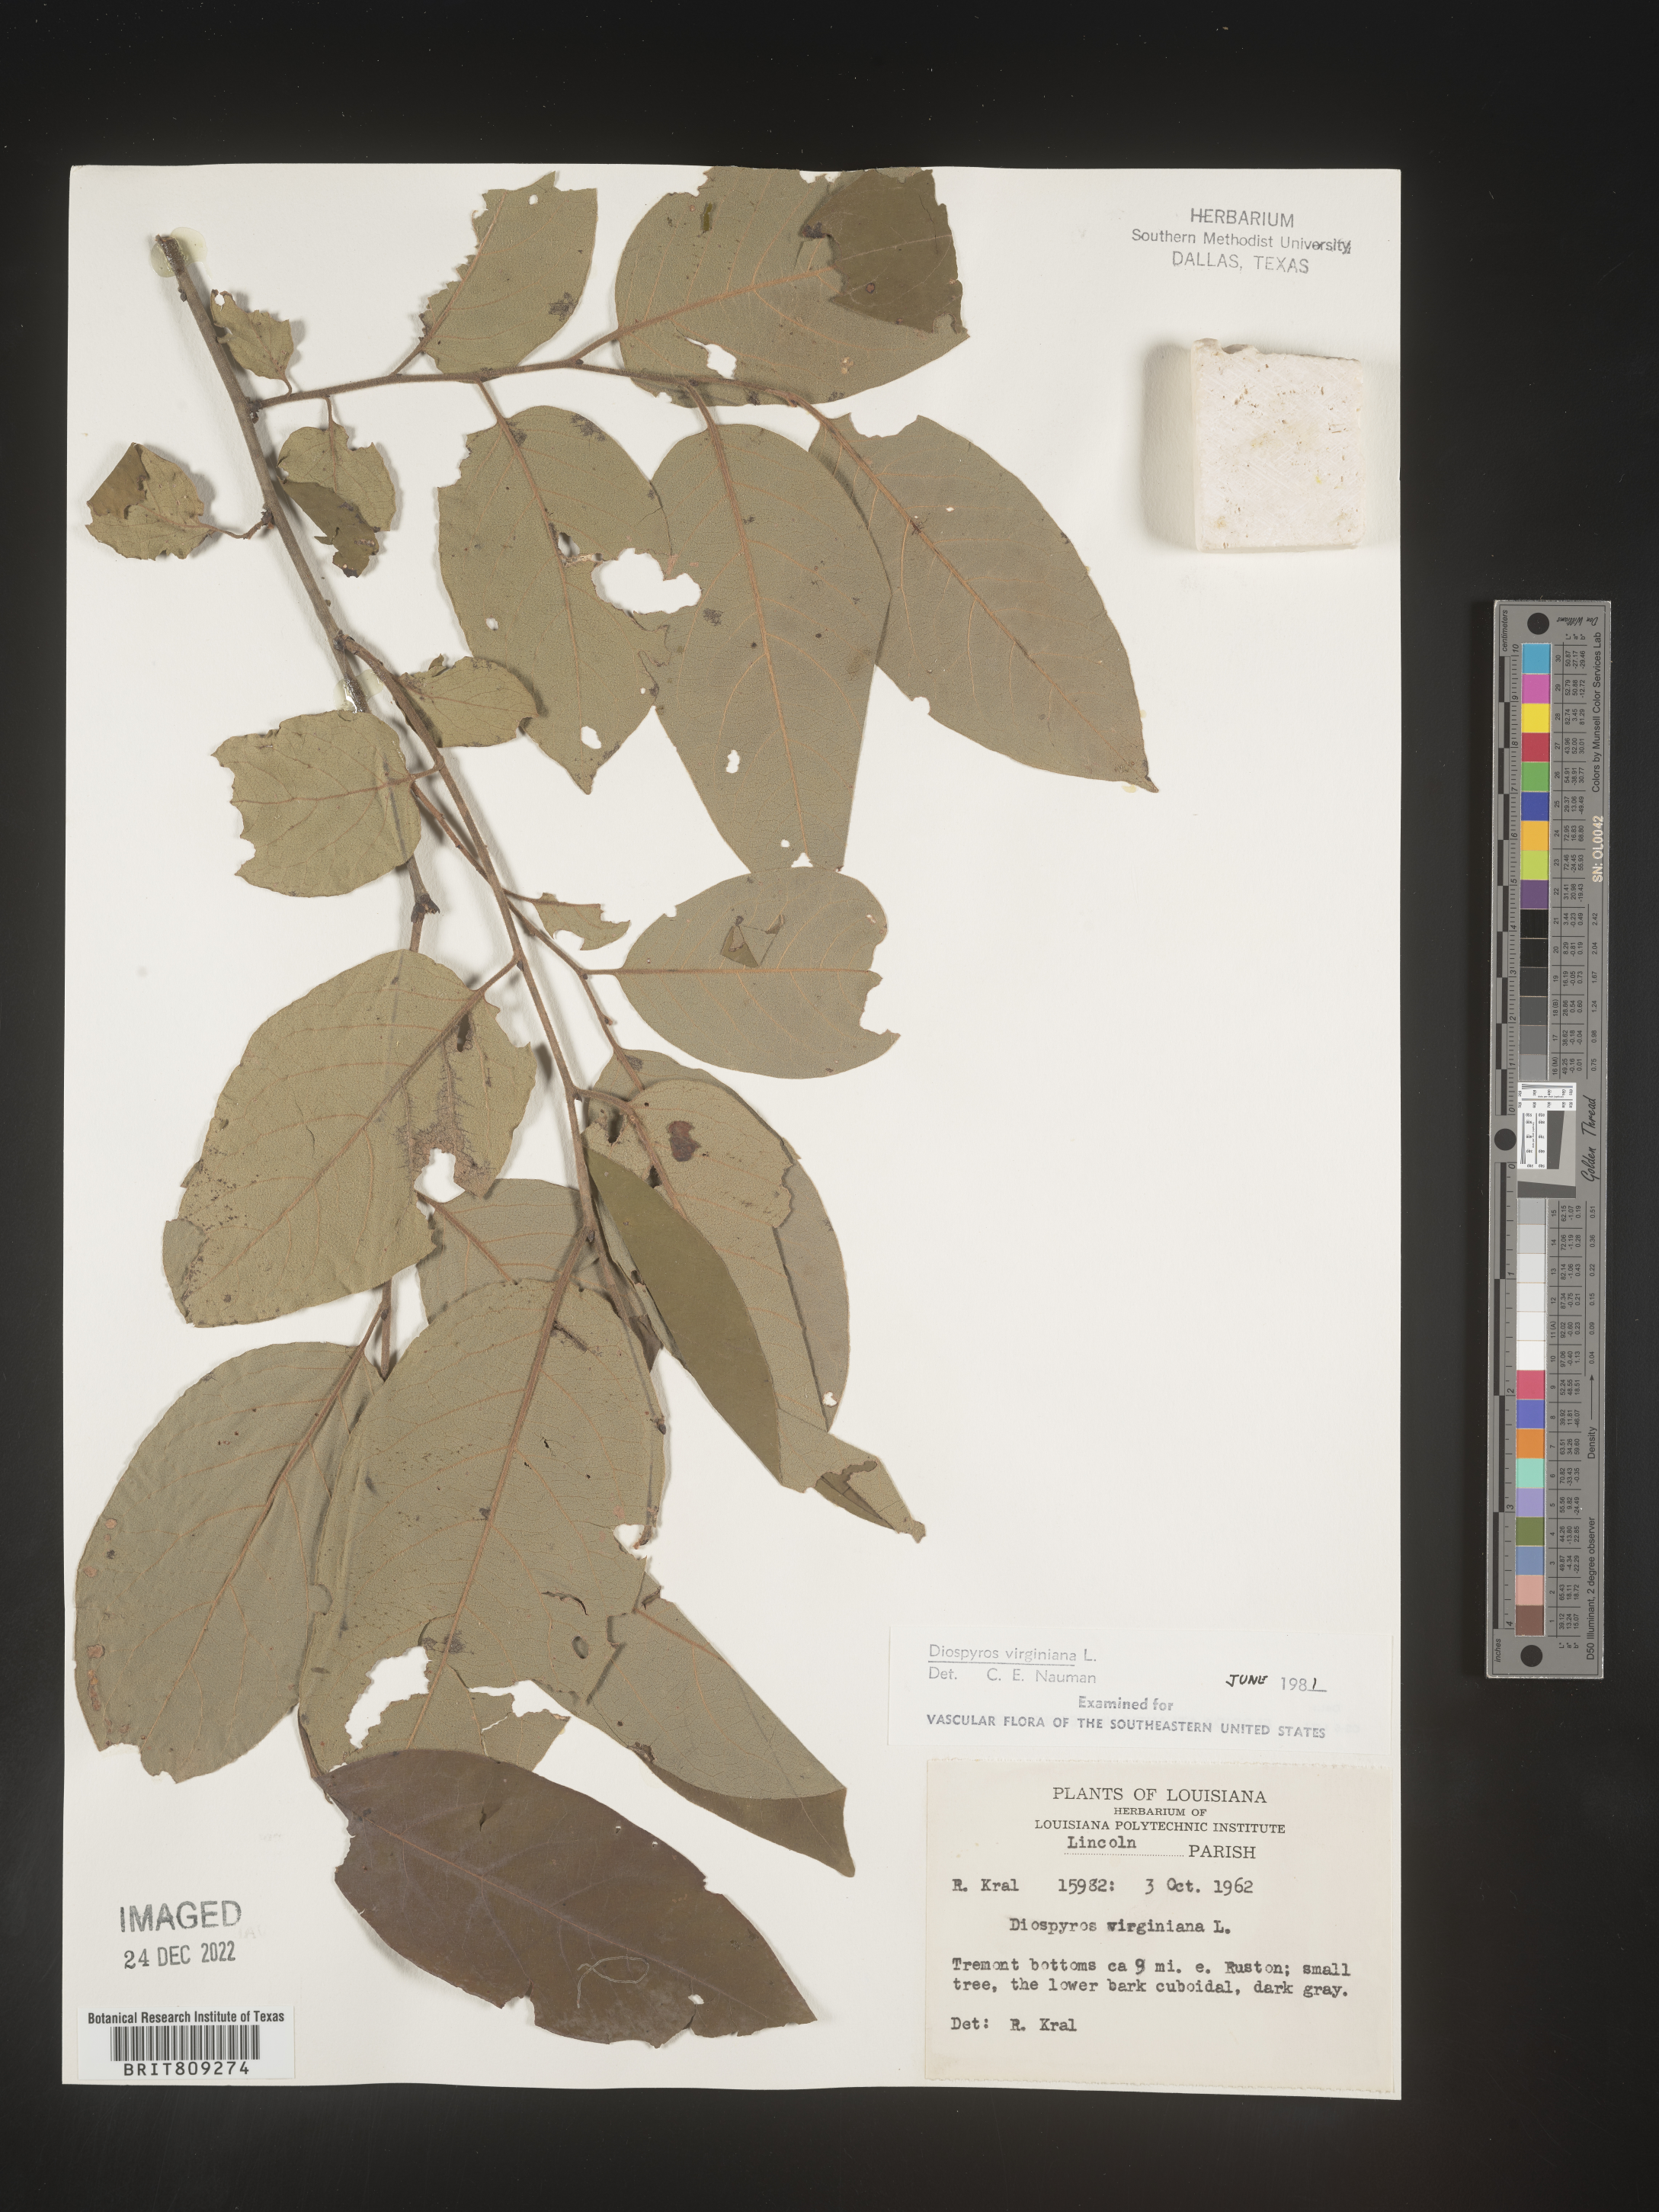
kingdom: Plantae
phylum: Tracheophyta
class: Magnoliopsida
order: Ericales
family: Ebenaceae
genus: Diospyros
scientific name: Diospyros virginiana
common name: Persimmon
